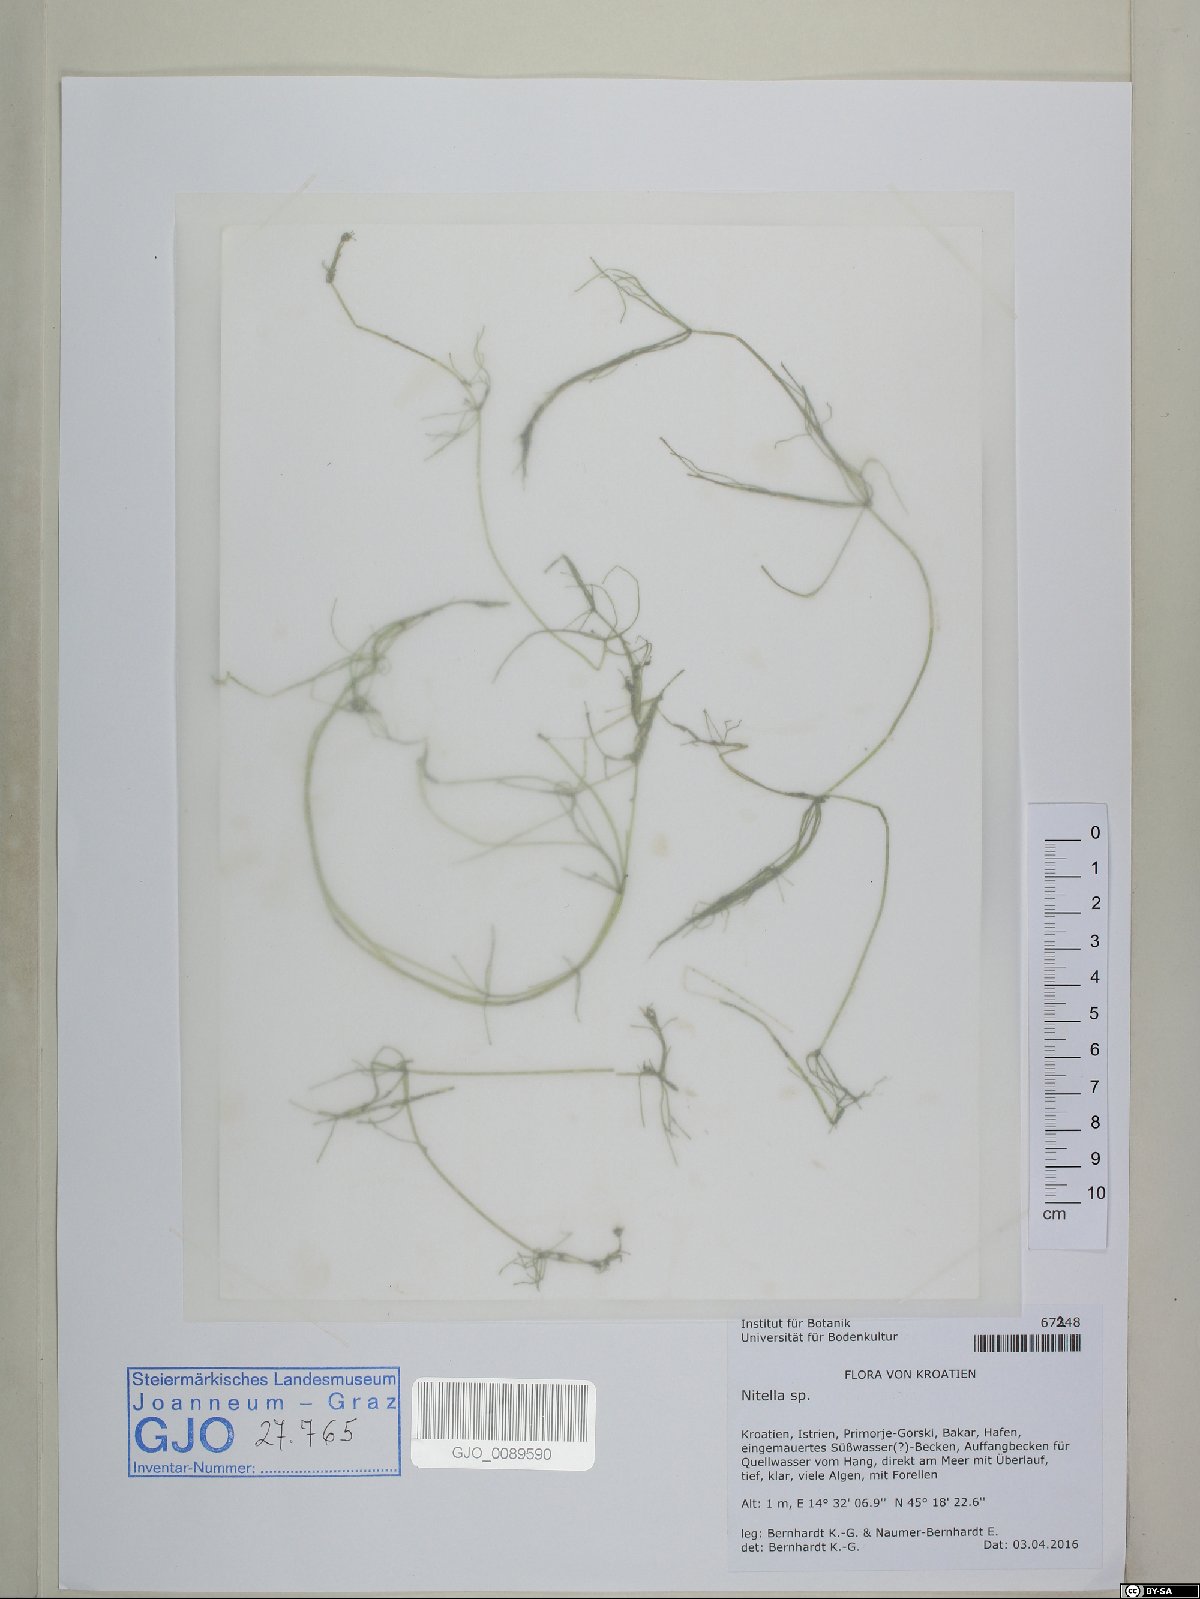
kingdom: Plantae
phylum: Charophyta
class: Charophyceae
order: Charales
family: Characeae
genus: Nitella
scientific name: Nitella
